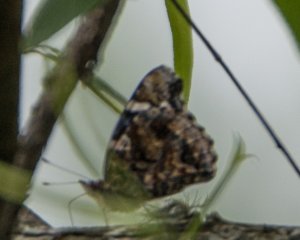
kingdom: Animalia
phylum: Arthropoda
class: Insecta
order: Lepidoptera
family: Nymphalidae
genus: Vanessa
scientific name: Vanessa atalanta
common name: Red Admiral
